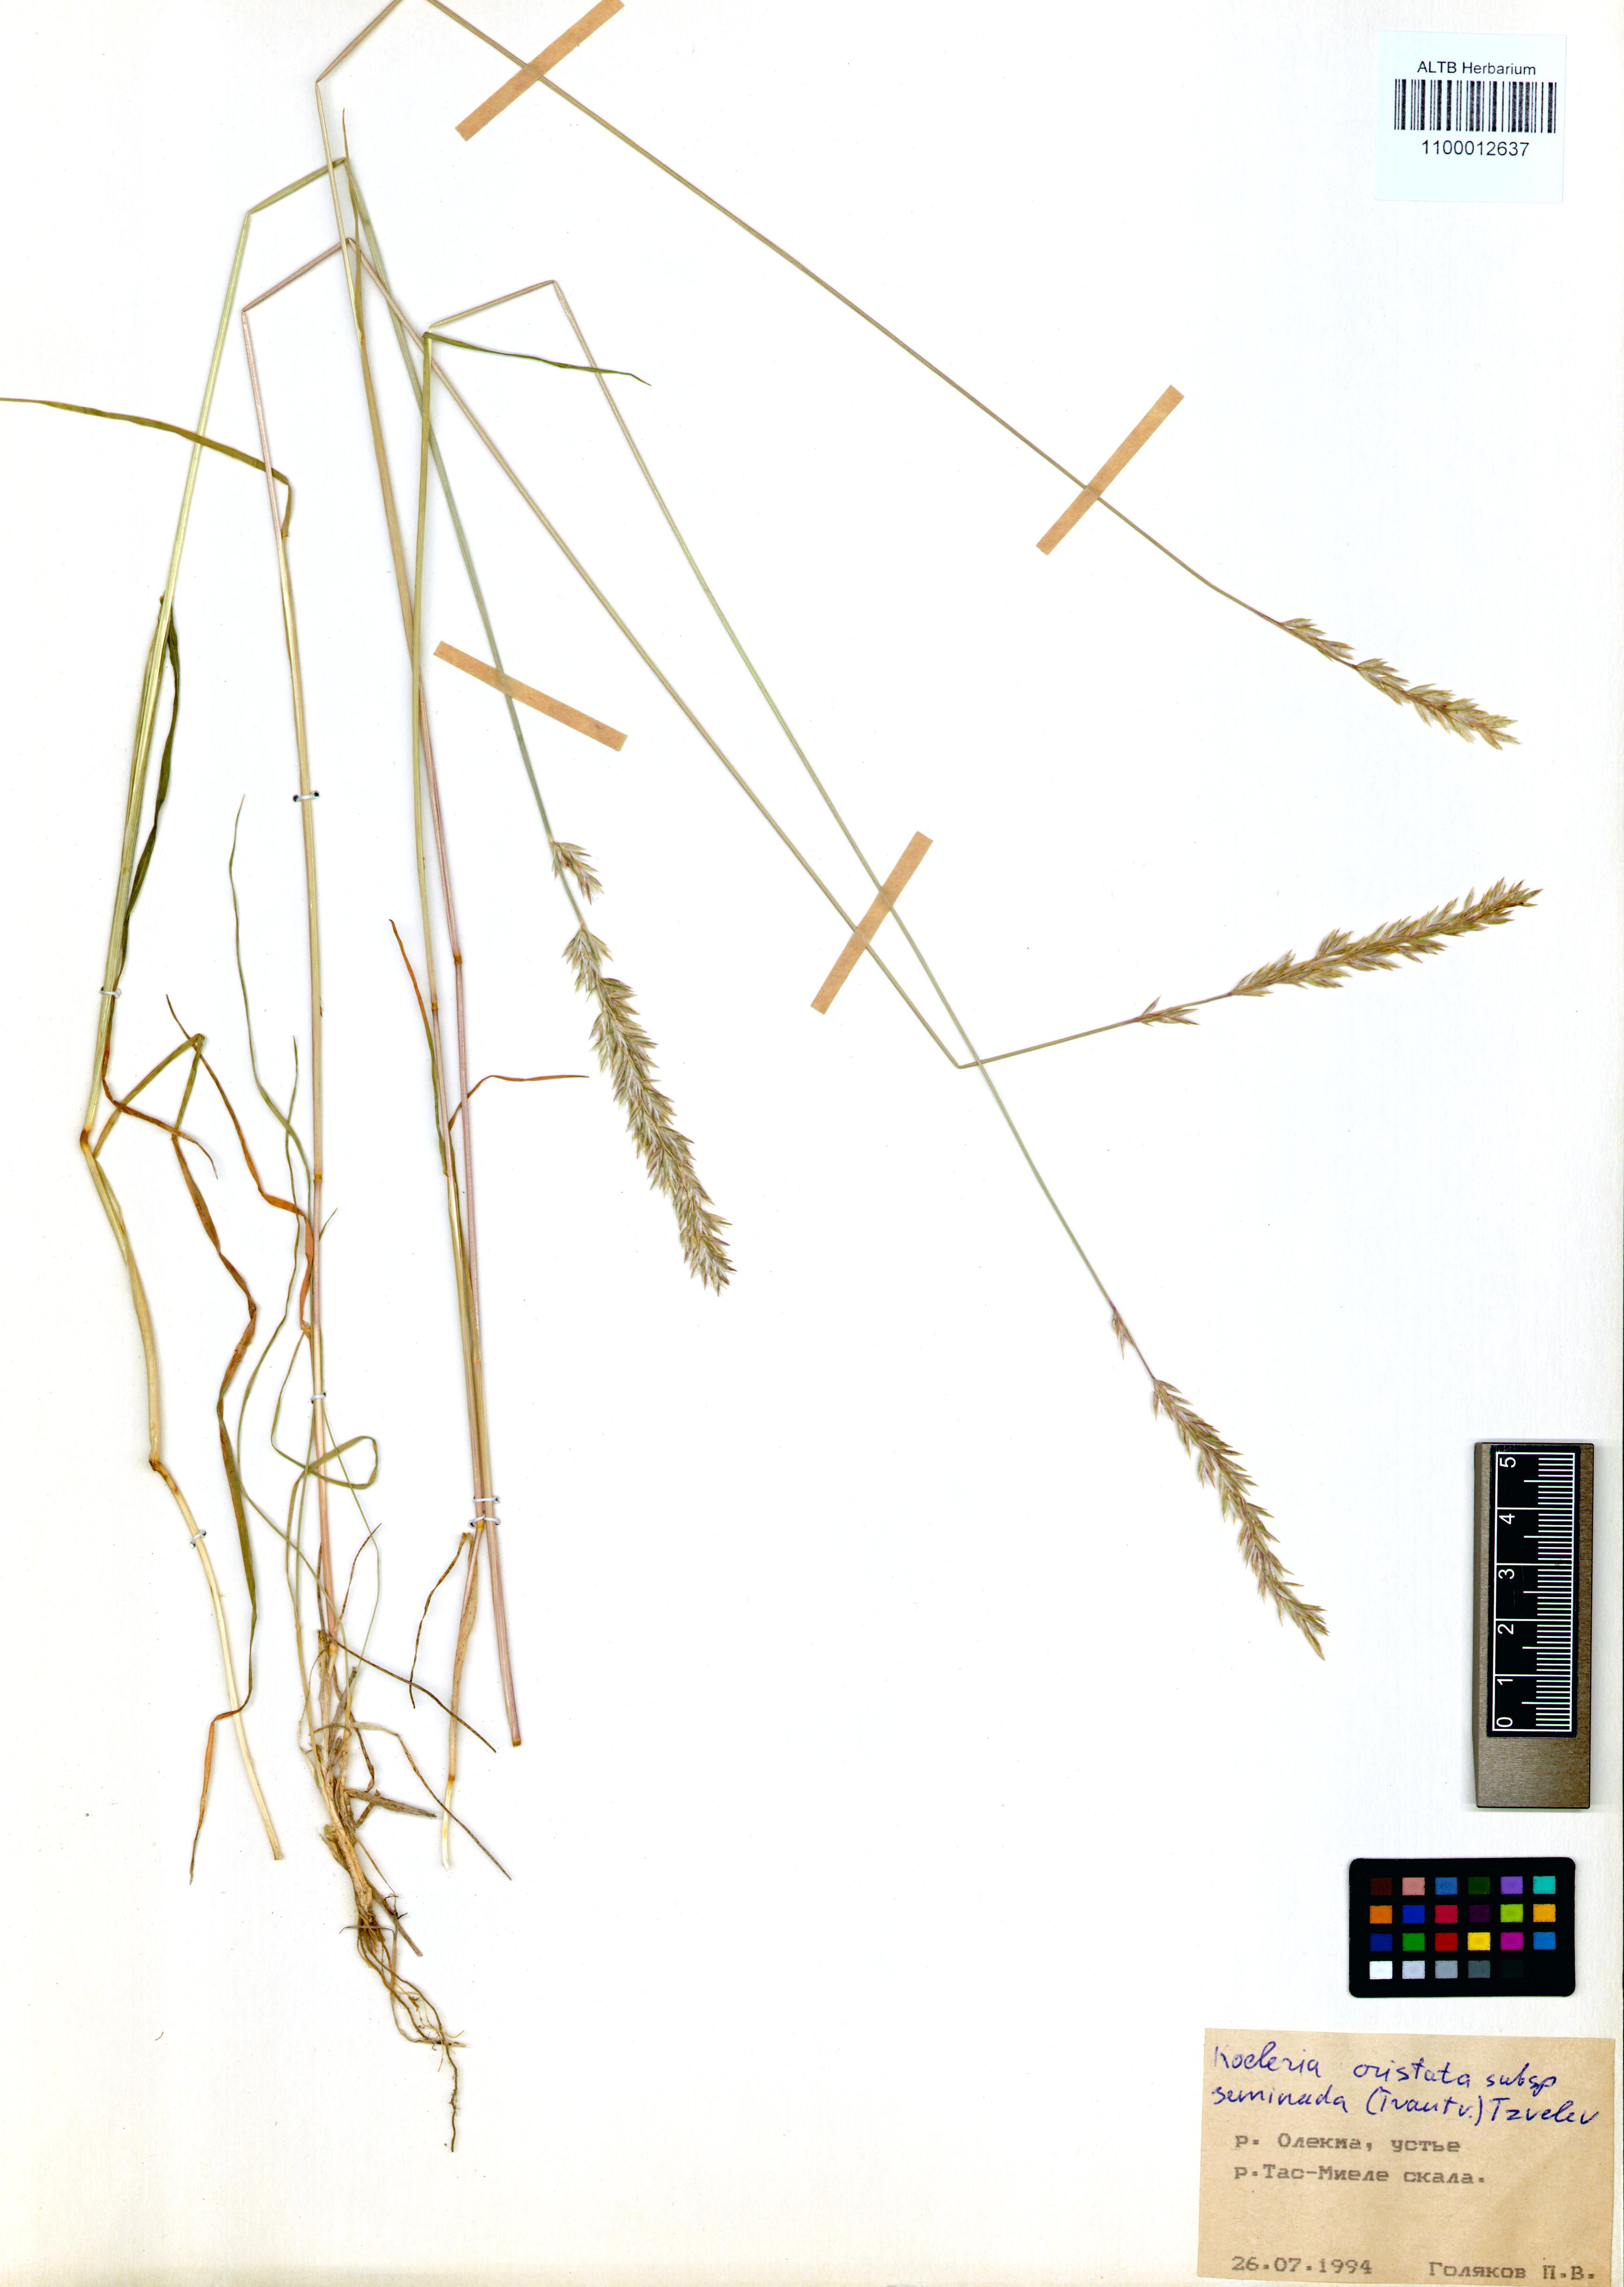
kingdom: Plantae
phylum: Tracheophyta
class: Liliopsida
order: Poales
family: Poaceae
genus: Koeleria
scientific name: Koeleria pyramidata
